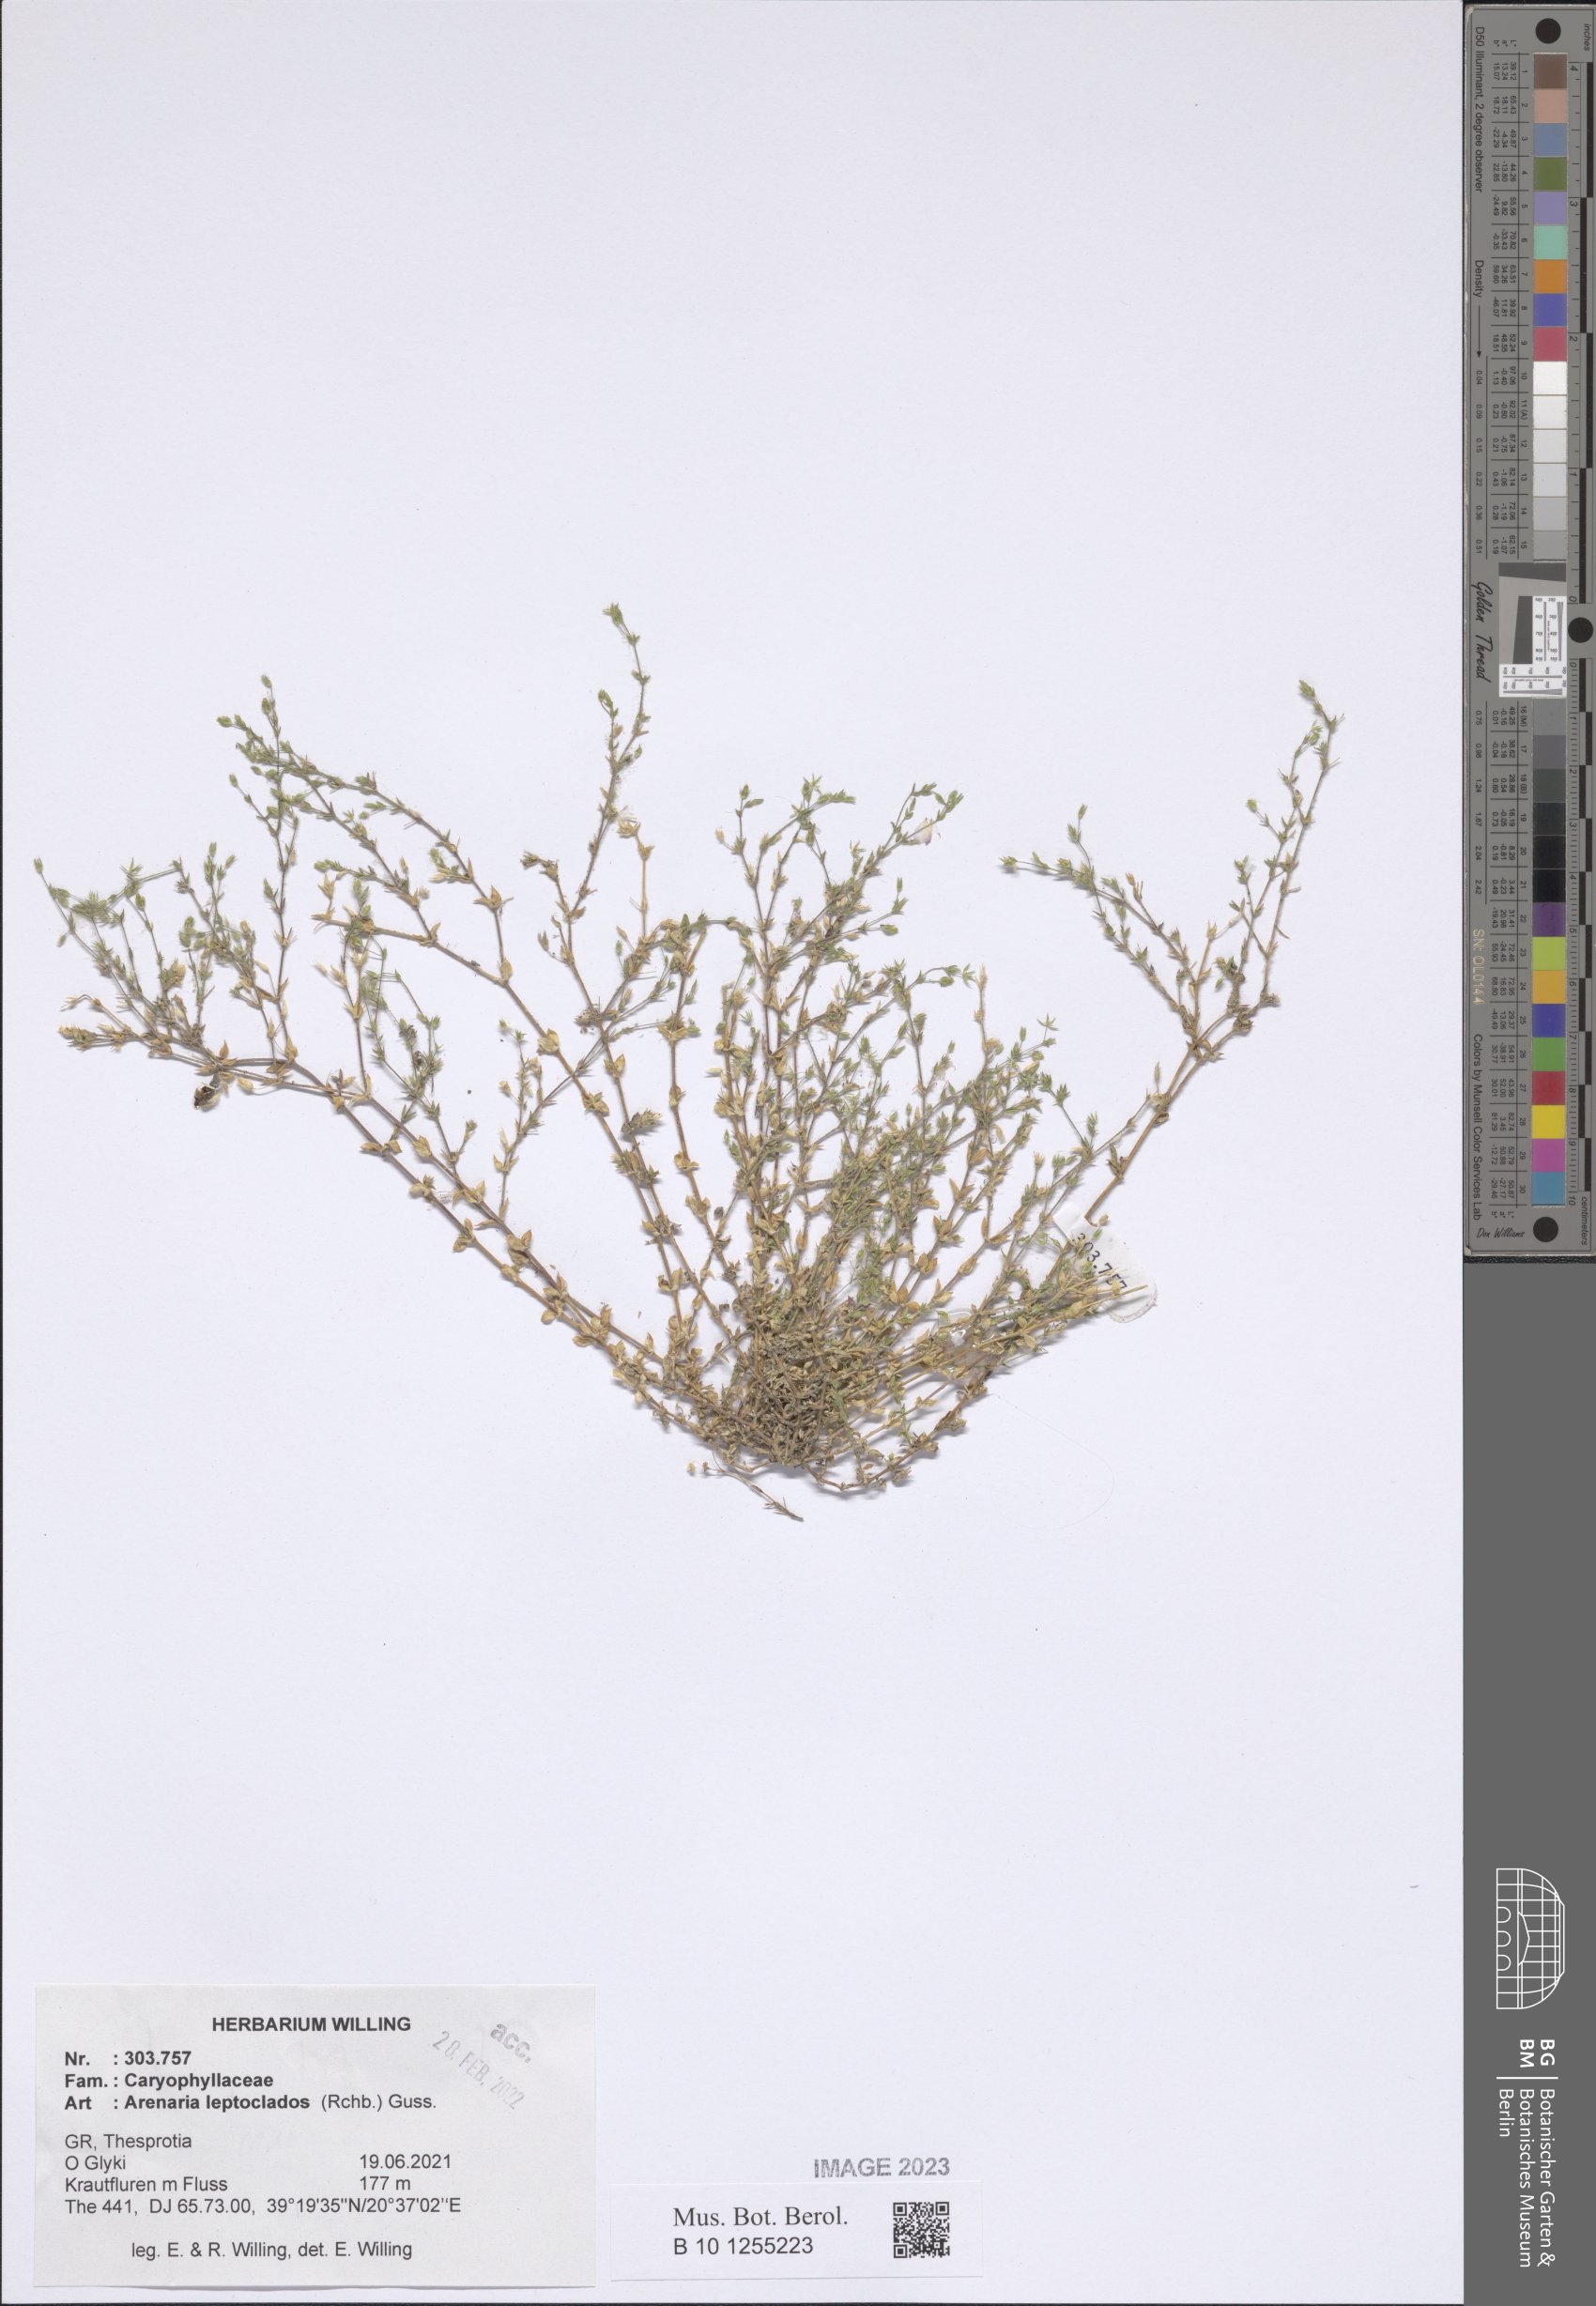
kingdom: Plantae
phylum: Tracheophyta
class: Magnoliopsida
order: Caryophyllales
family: Caryophyllaceae
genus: Arenaria
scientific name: Arenaria leptoclados
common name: Thyme-leaved sandwort
